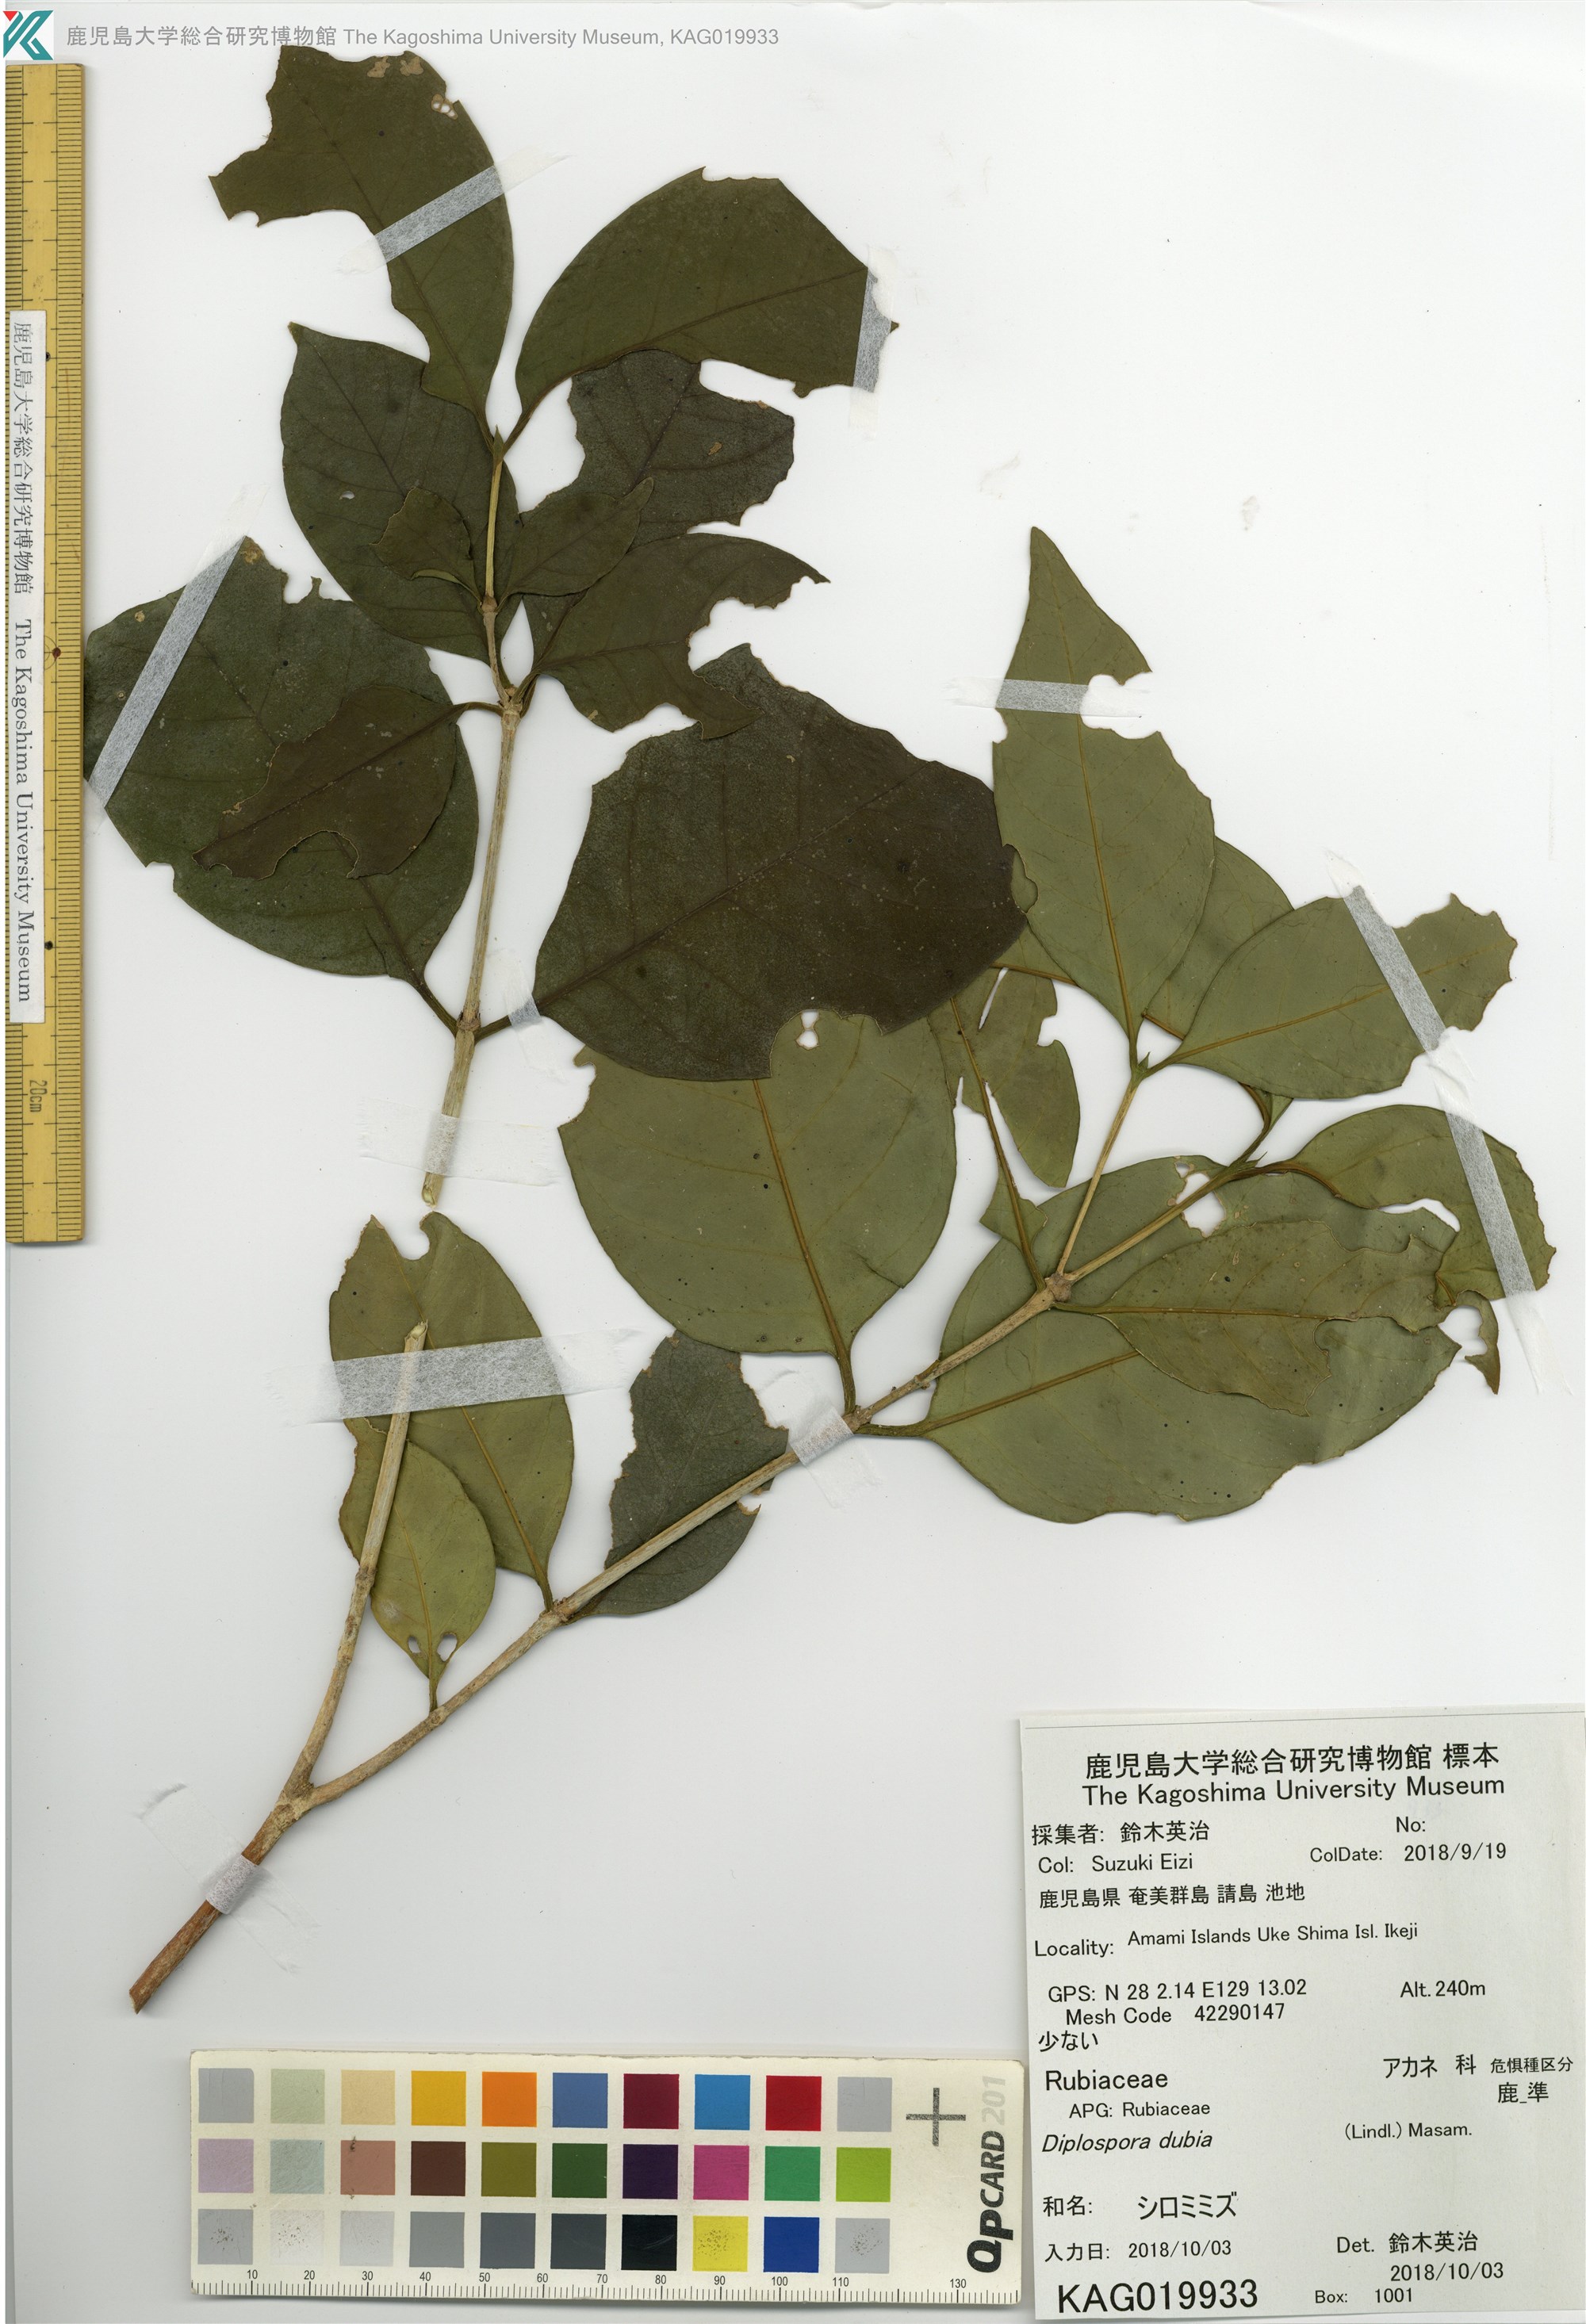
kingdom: Plantae
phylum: Tracheophyta
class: Magnoliopsida
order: Gentianales
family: Rubiaceae
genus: Diplospora
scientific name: Diplospora dubia
